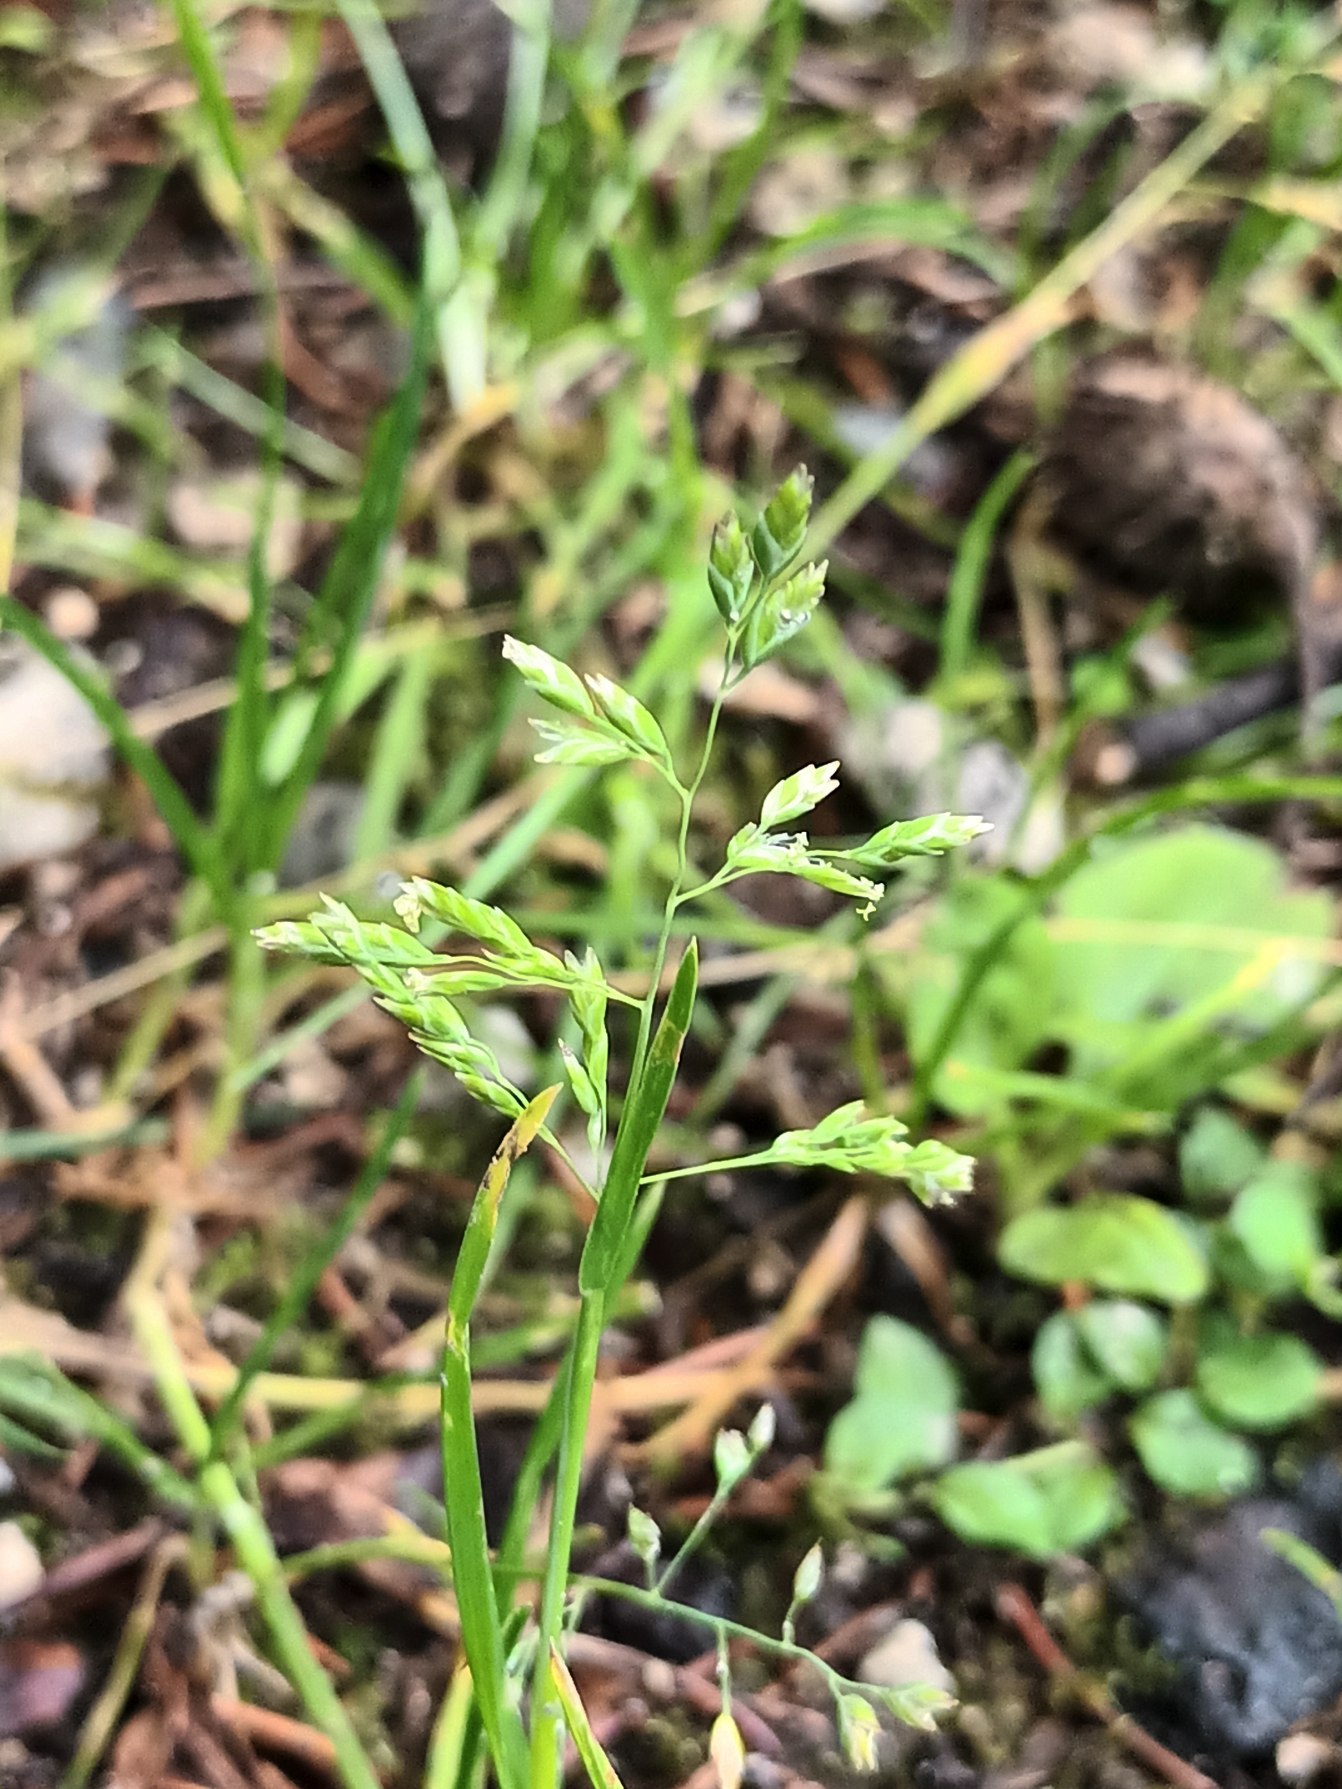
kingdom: Plantae
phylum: Tracheophyta
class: Liliopsida
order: Poales
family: Poaceae
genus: Poa
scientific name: Poa annua
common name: Enårig rapgræs
